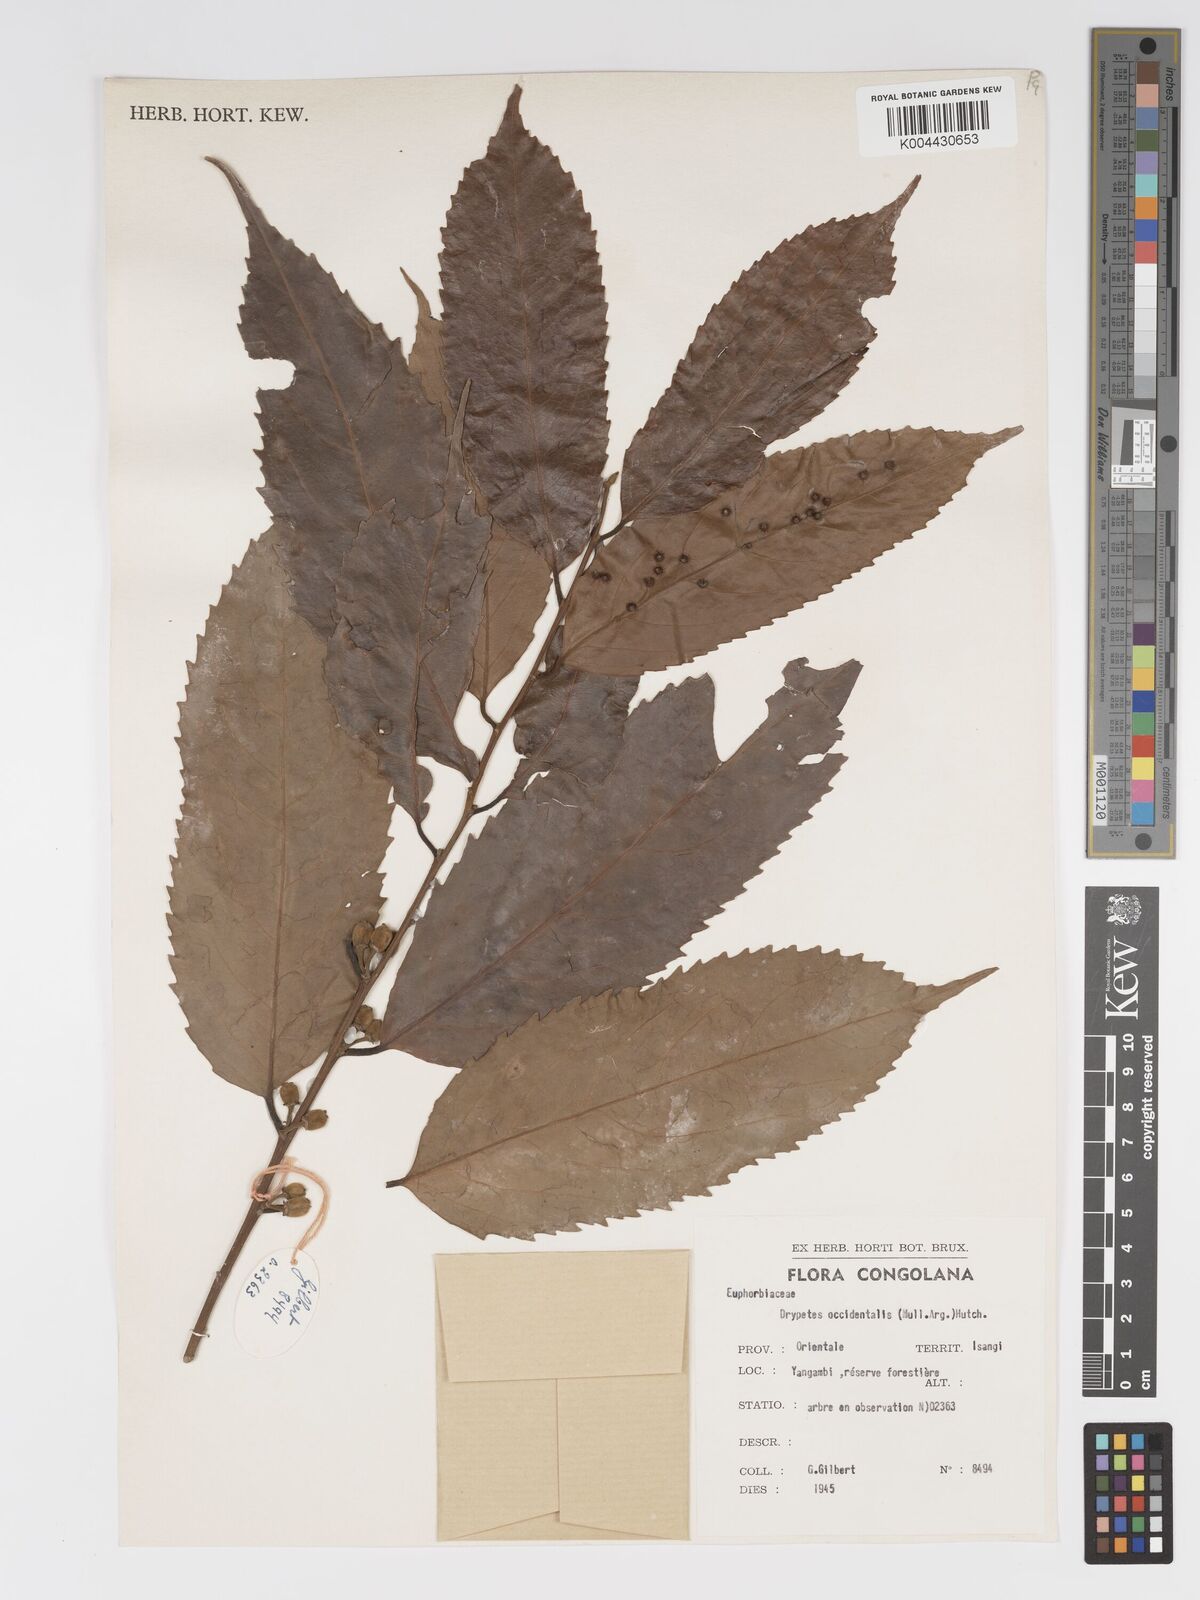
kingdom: Plantae
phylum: Tracheophyta
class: Magnoliopsida
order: Malpighiales
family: Putranjivaceae
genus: Drypetes
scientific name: Drypetes occidentalis
